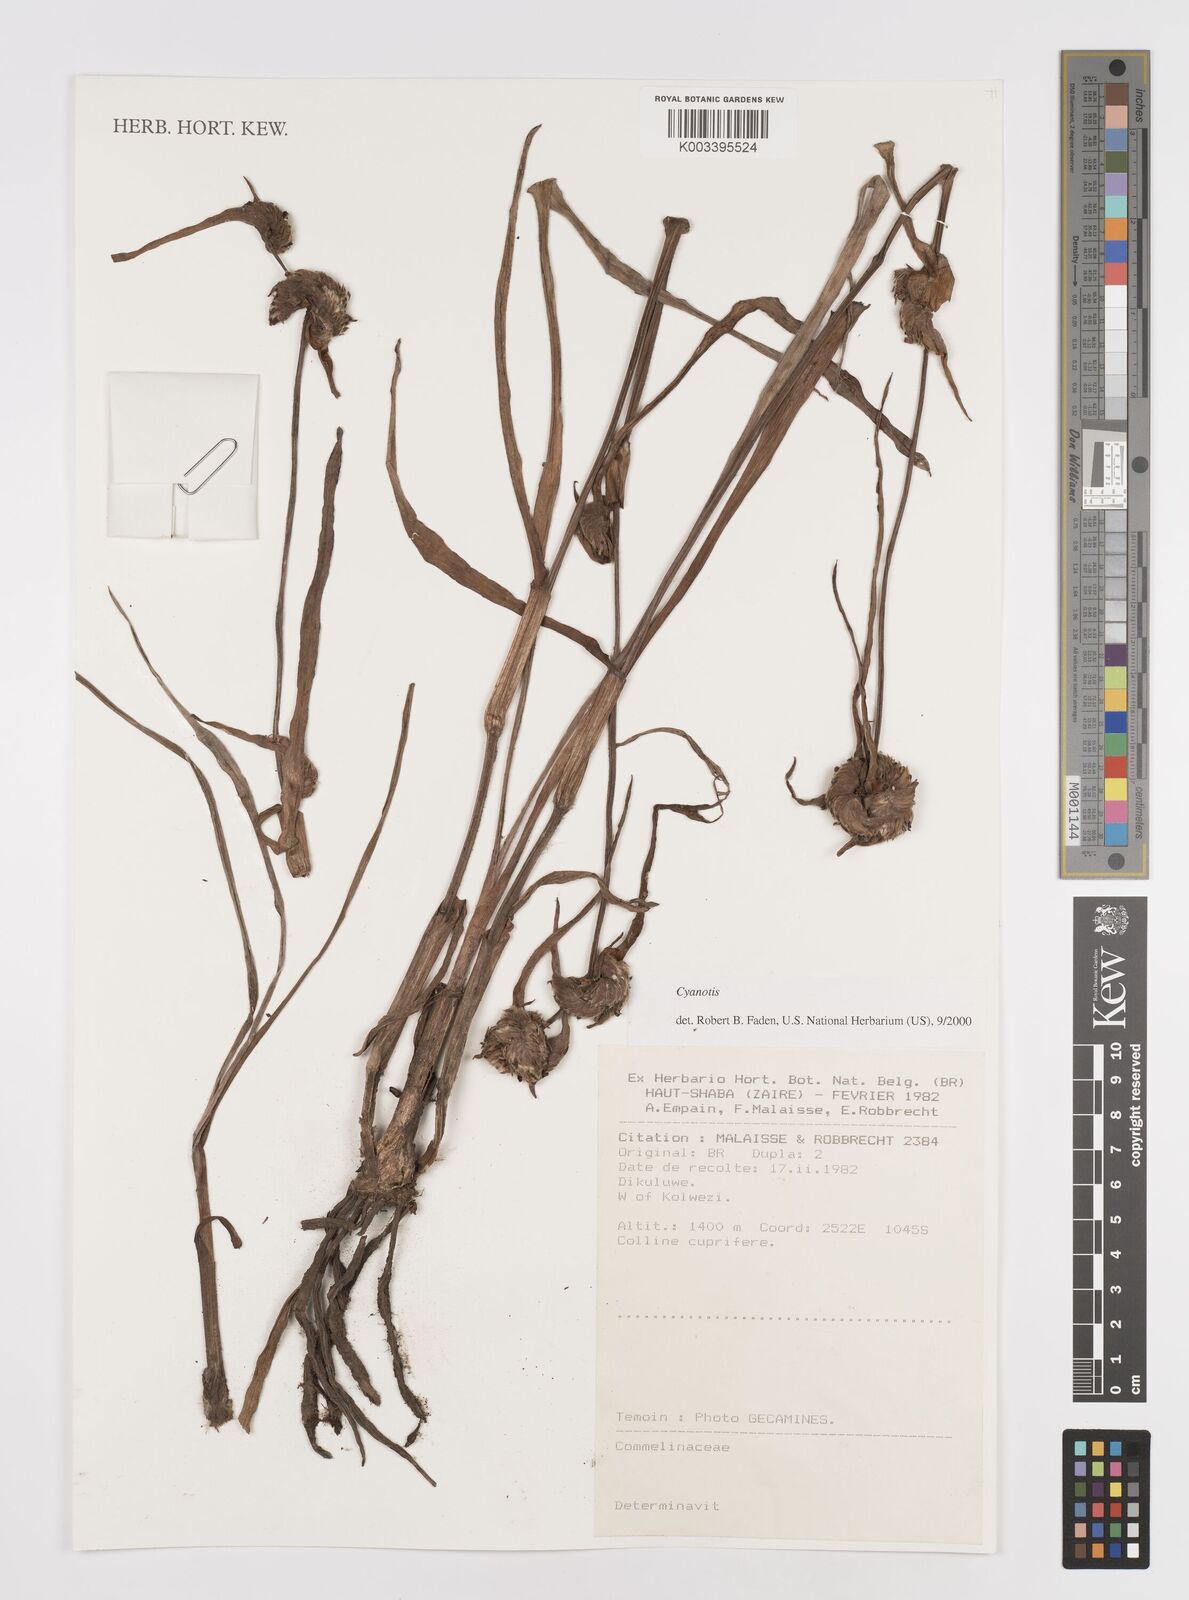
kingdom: Plantae
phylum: Tracheophyta
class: Liliopsida
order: Commelinales
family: Commelinaceae
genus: Cyanotis
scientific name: Cyanotis
